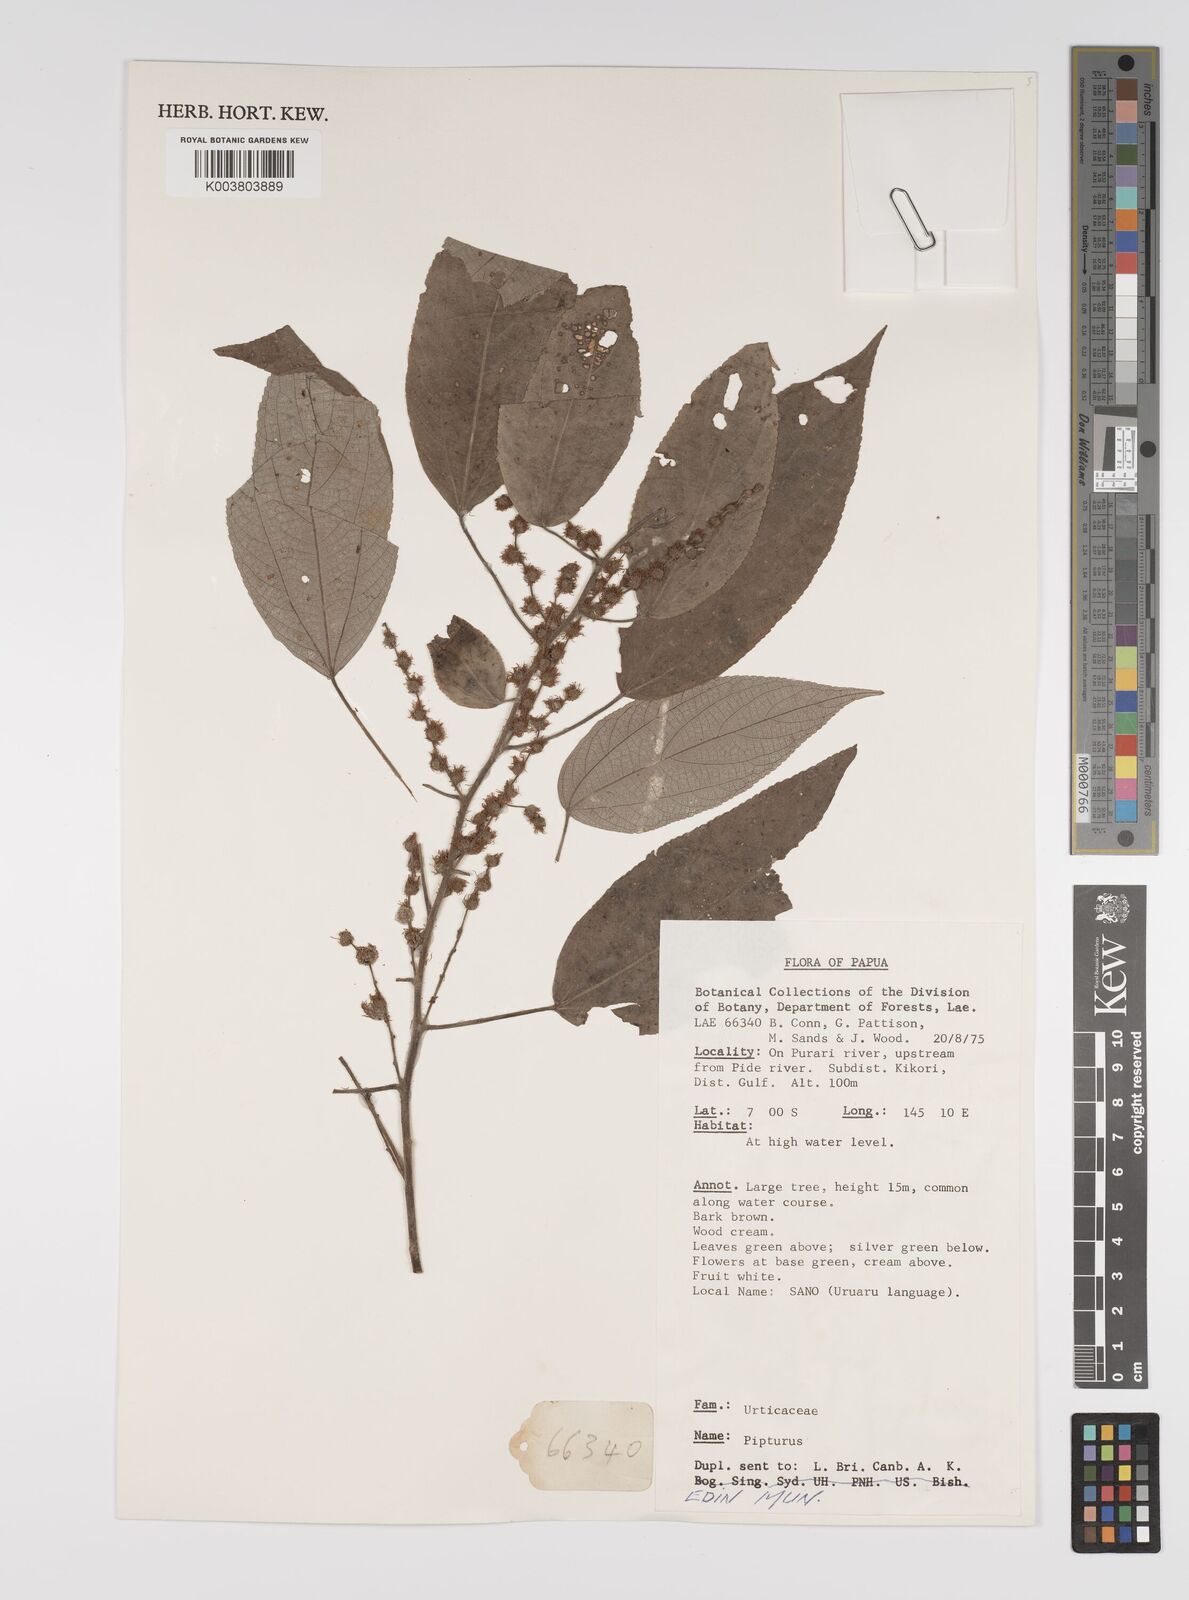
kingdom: Plantae
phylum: Tracheophyta
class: Magnoliopsida
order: Rosales
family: Urticaceae
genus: Pipturus
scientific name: Pipturus argenteus
